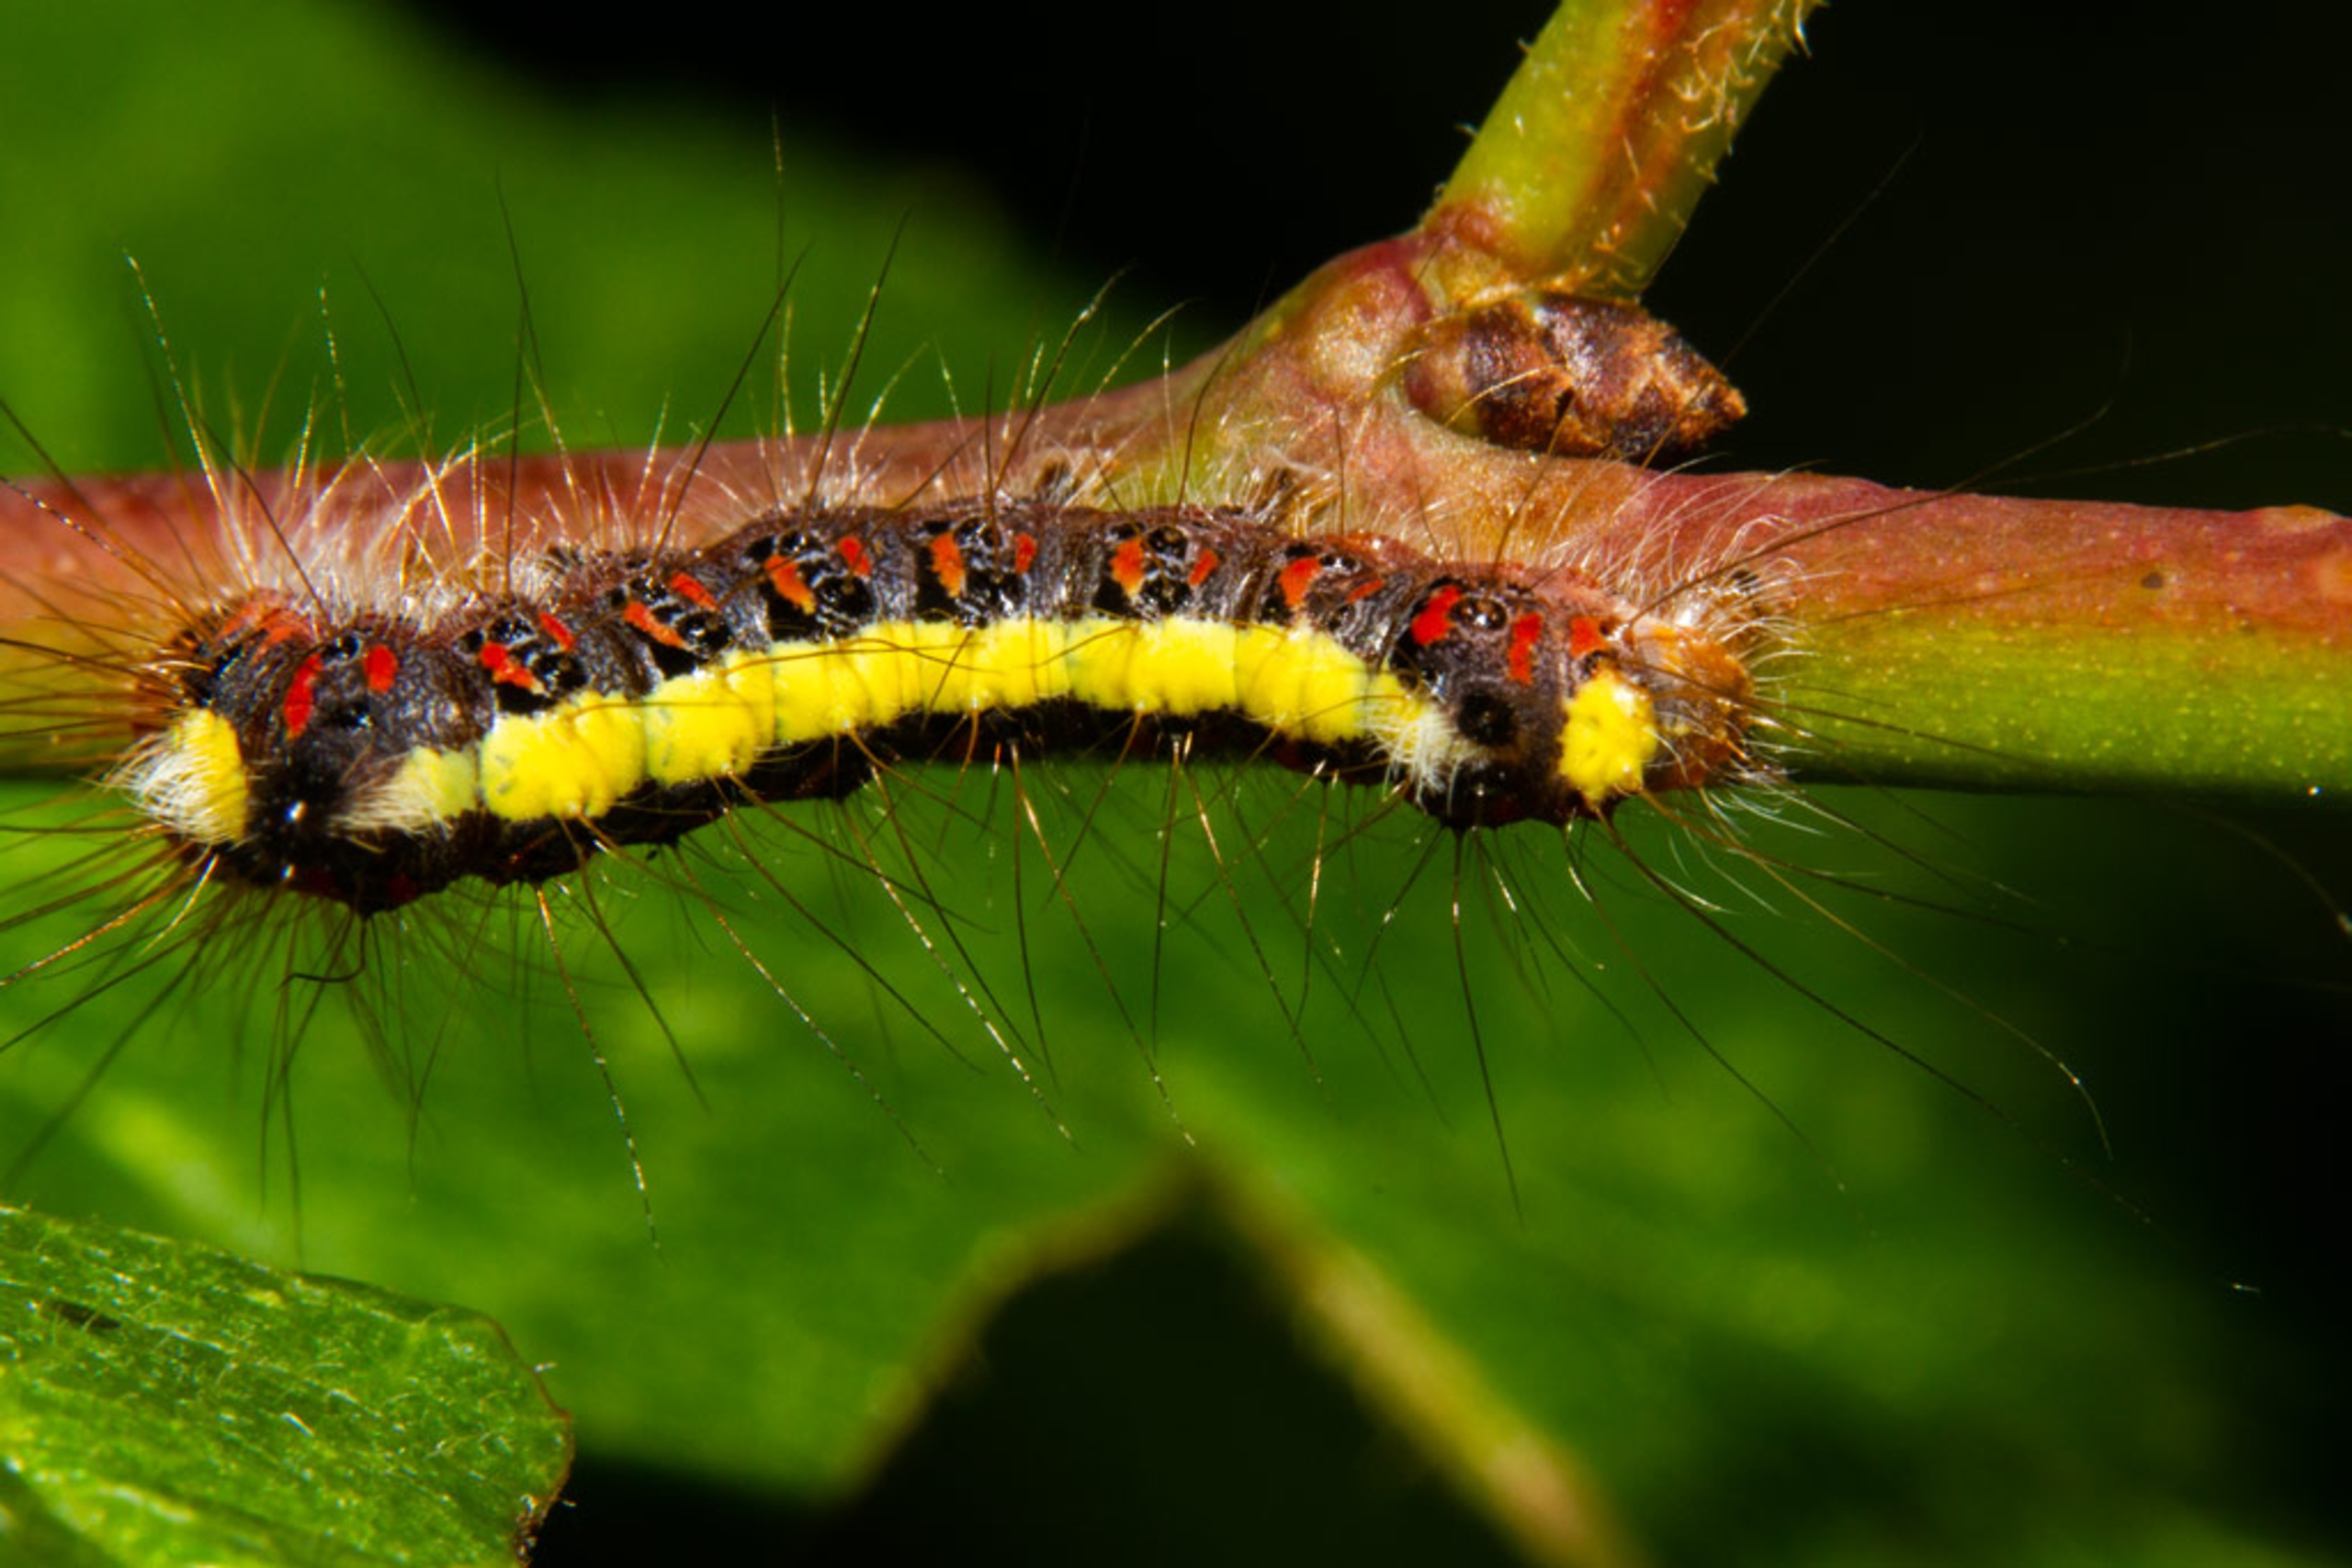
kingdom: Animalia
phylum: Arthropoda
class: Insecta
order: Lepidoptera
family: Noctuidae
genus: Acronicta
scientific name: Acronicta psi
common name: Psi-ugle
